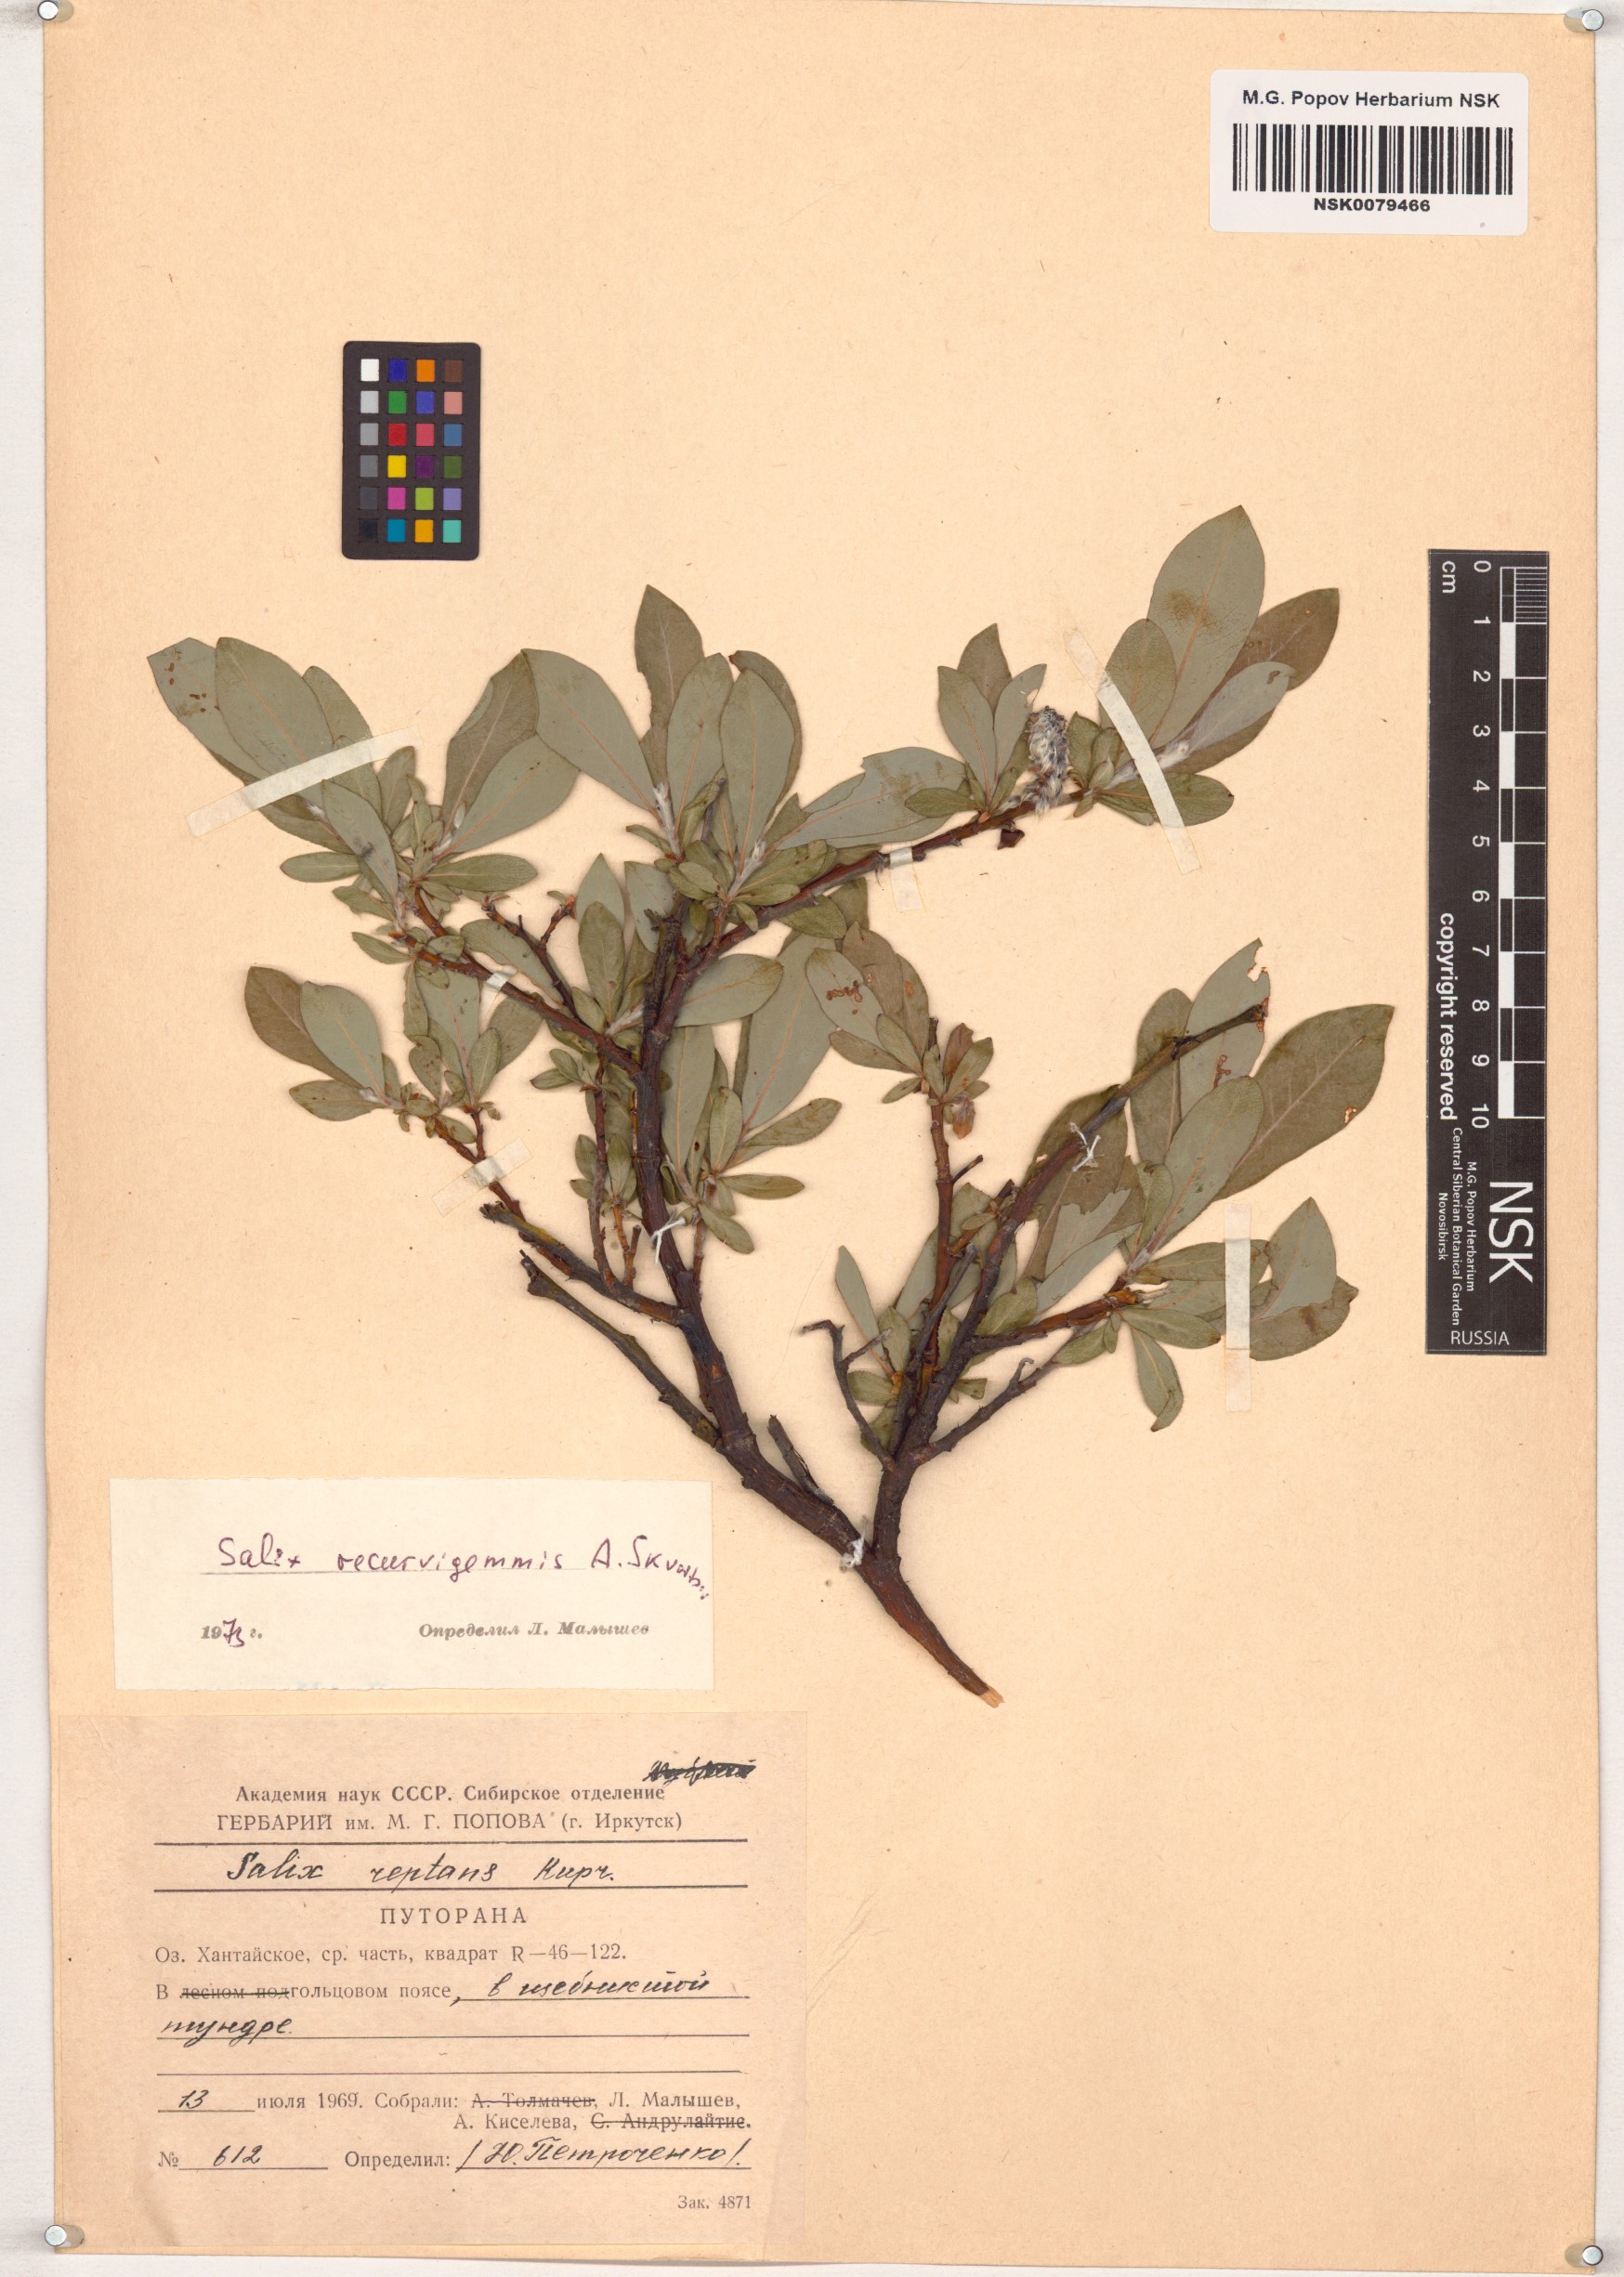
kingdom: Plantae
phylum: Tracheophyta
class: Magnoliopsida
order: Malpighiales
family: Salicaceae
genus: Salix
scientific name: Salix recurvigemmata
